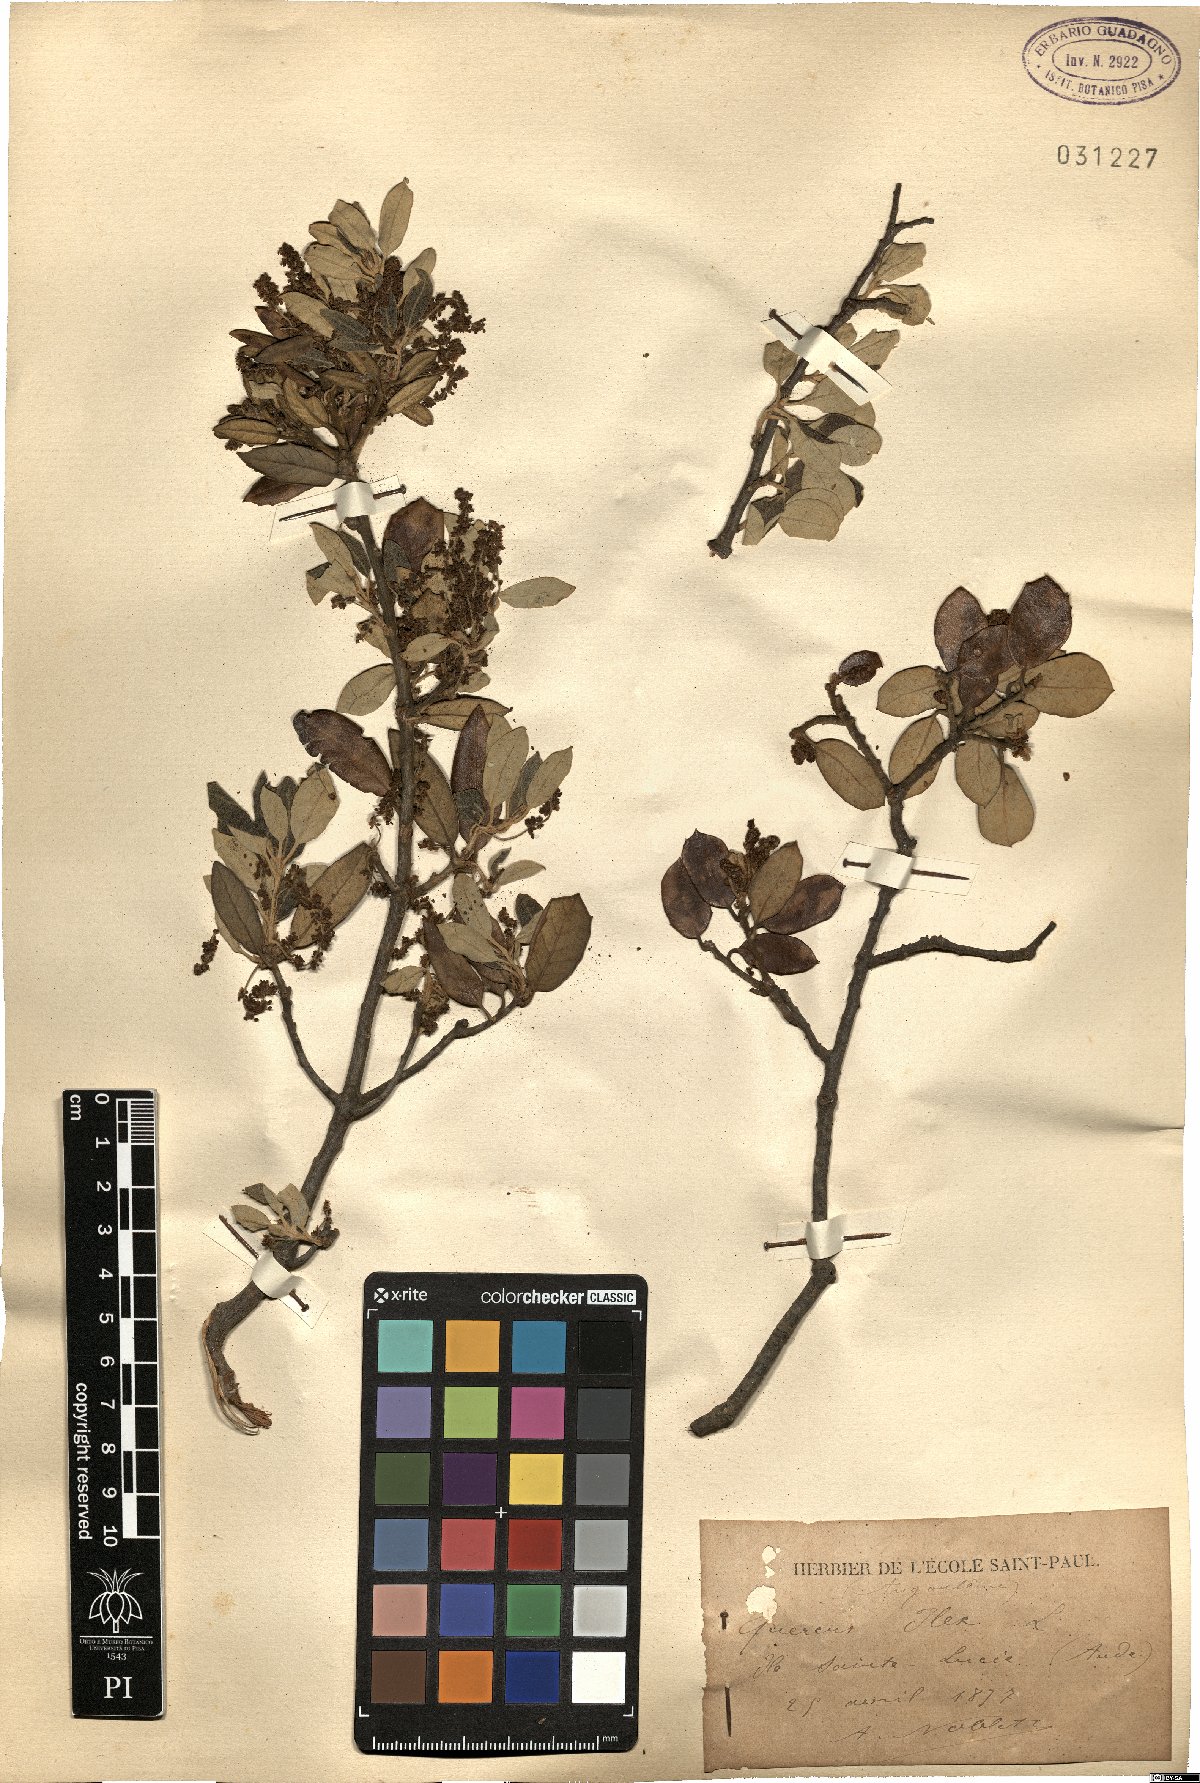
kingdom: Plantae
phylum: Tracheophyta
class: Magnoliopsida
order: Fagales
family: Fagaceae
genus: Quercus
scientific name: Quercus ilex
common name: Evergreen oak
